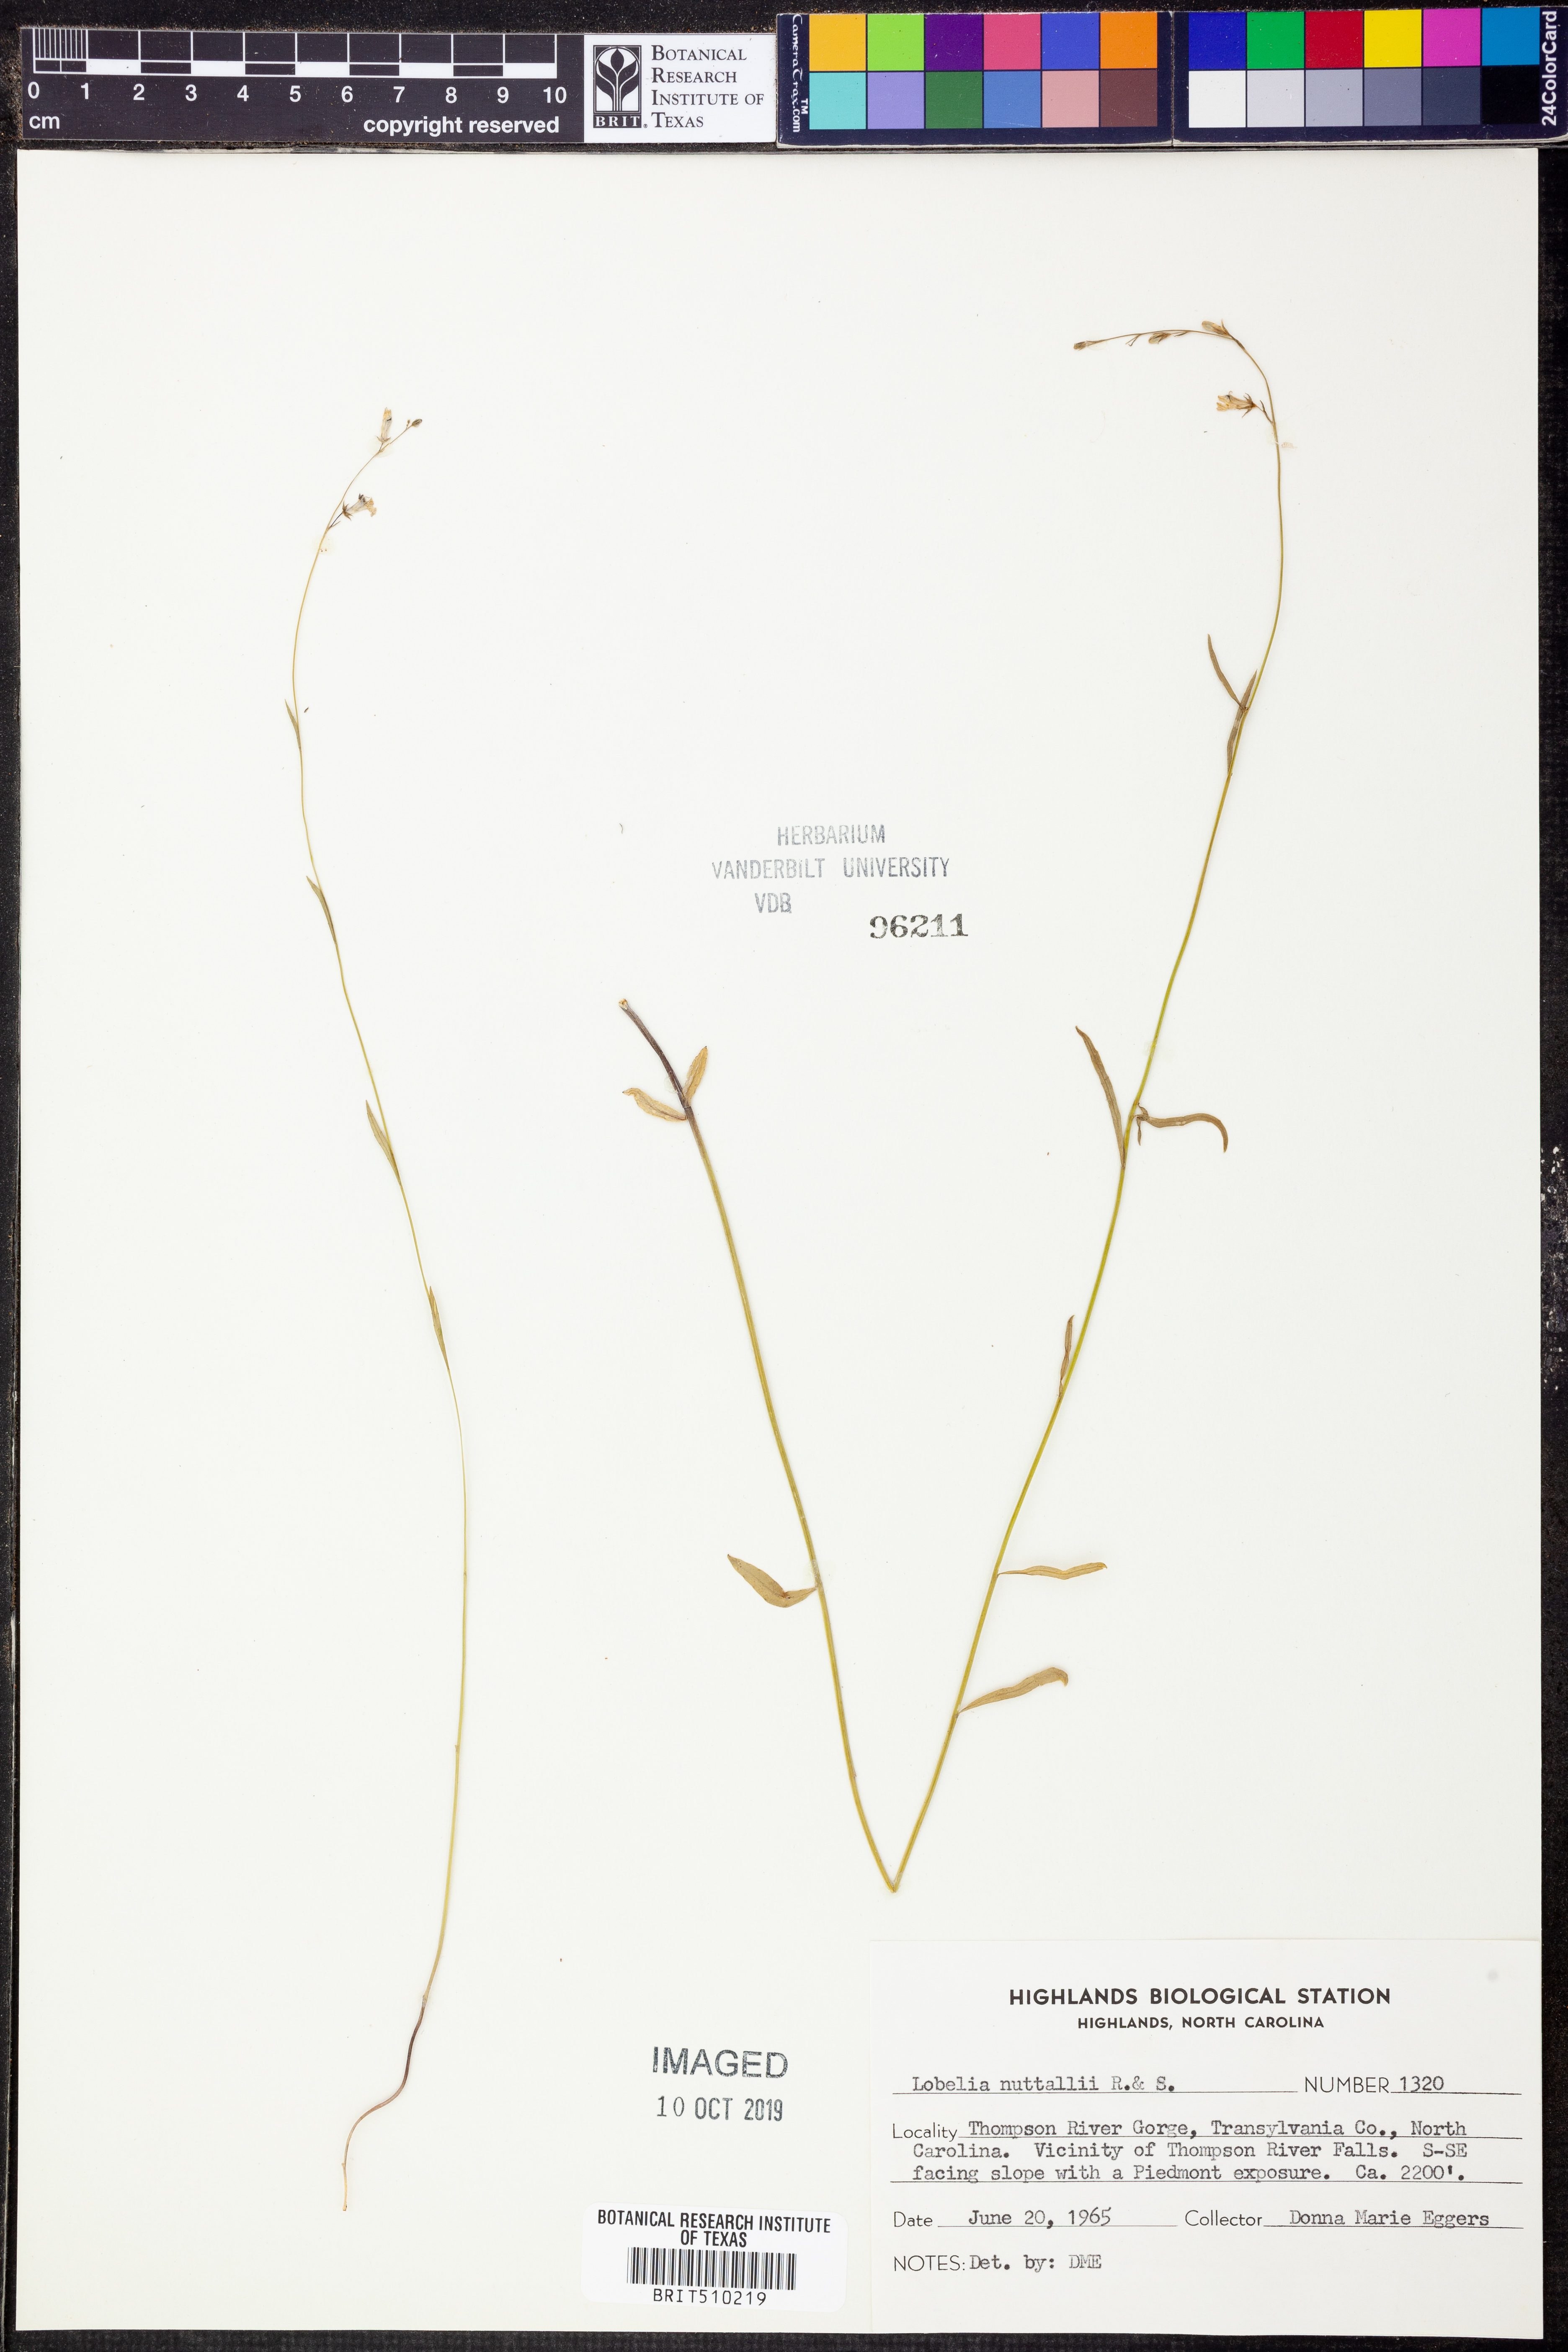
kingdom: Plantae
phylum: Tracheophyta
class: Magnoliopsida
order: Asterales
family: Campanulaceae
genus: Lobelia
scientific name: Lobelia nuttallii
